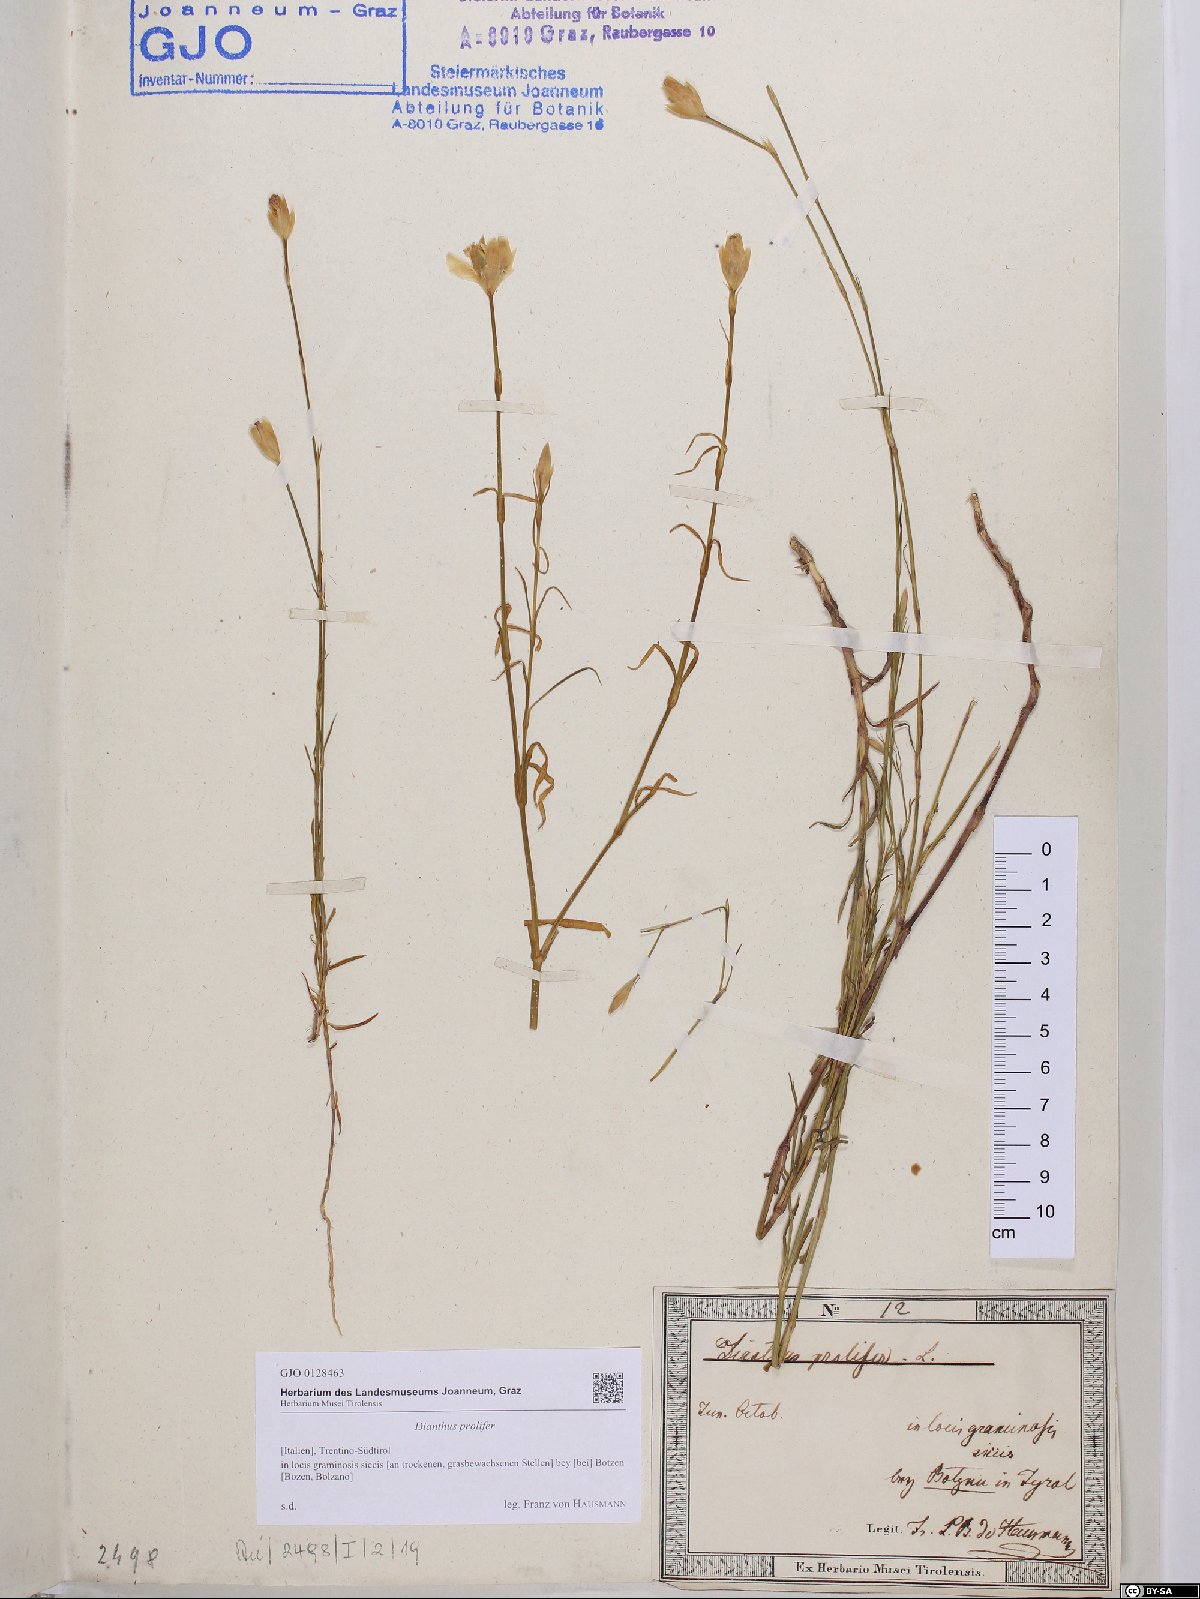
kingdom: Plantae
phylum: Tracheophyta
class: Magnoliopsida
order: Caryophyllales
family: Caryophyllaceae
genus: Petrorhagia
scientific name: Petrorhagia prolifera
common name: Proliferous pink
